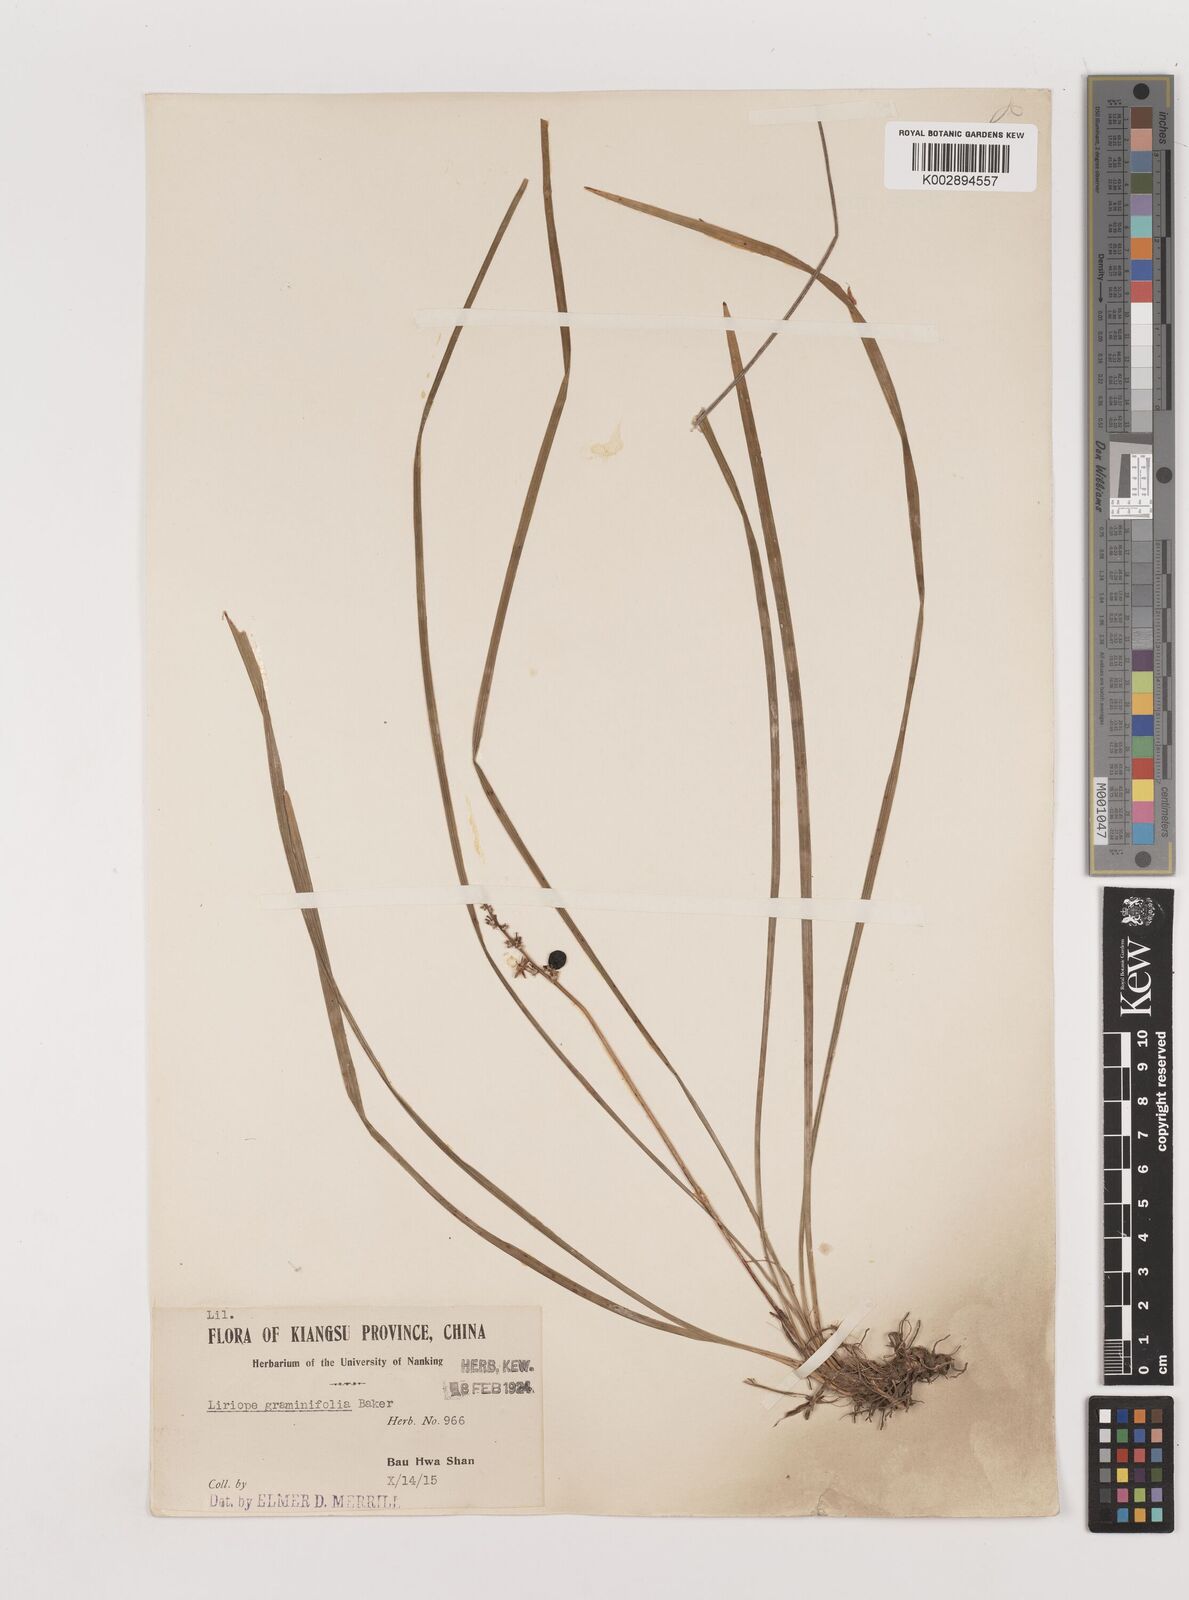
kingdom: Plantae
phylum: Tracheophyta
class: Liliopsida
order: Asparagales
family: Asparagaceae
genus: Liriope
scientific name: Liriope spicata
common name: Creeping liriope
